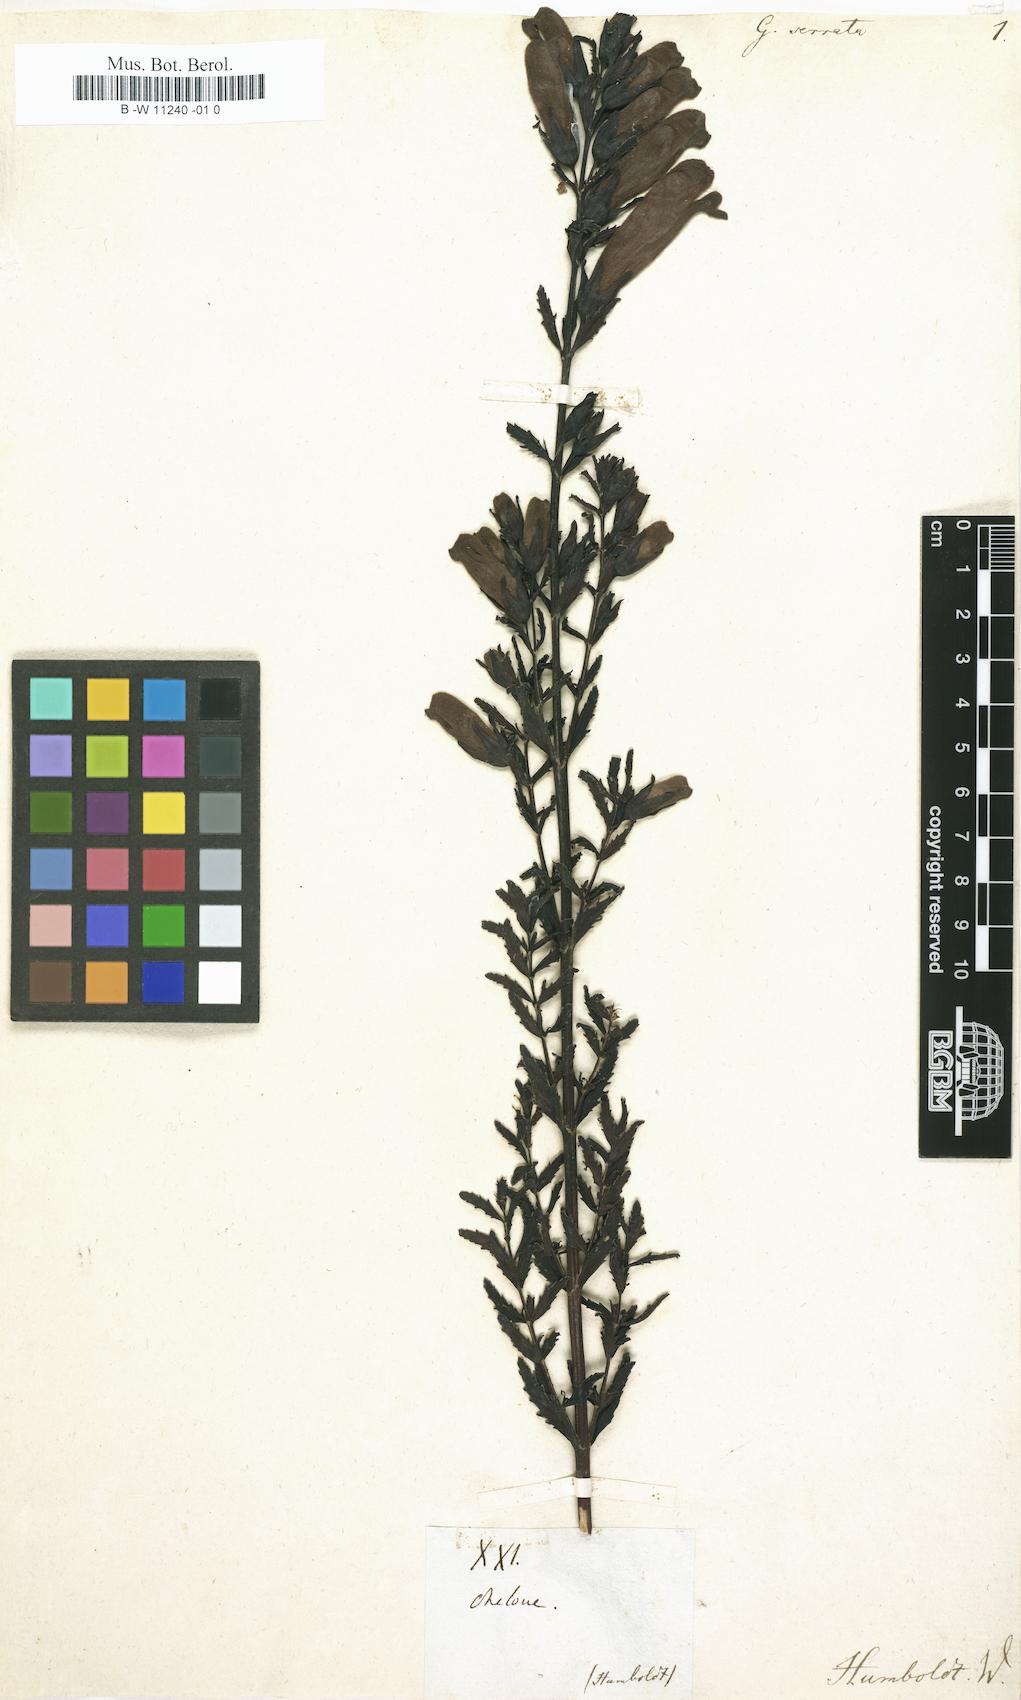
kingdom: Plantae
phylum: Tracheophyta
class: Magnoliopsida
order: Lamiales
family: Orobanchaceae
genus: Aureolaria
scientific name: Aureolaria grandiflora
